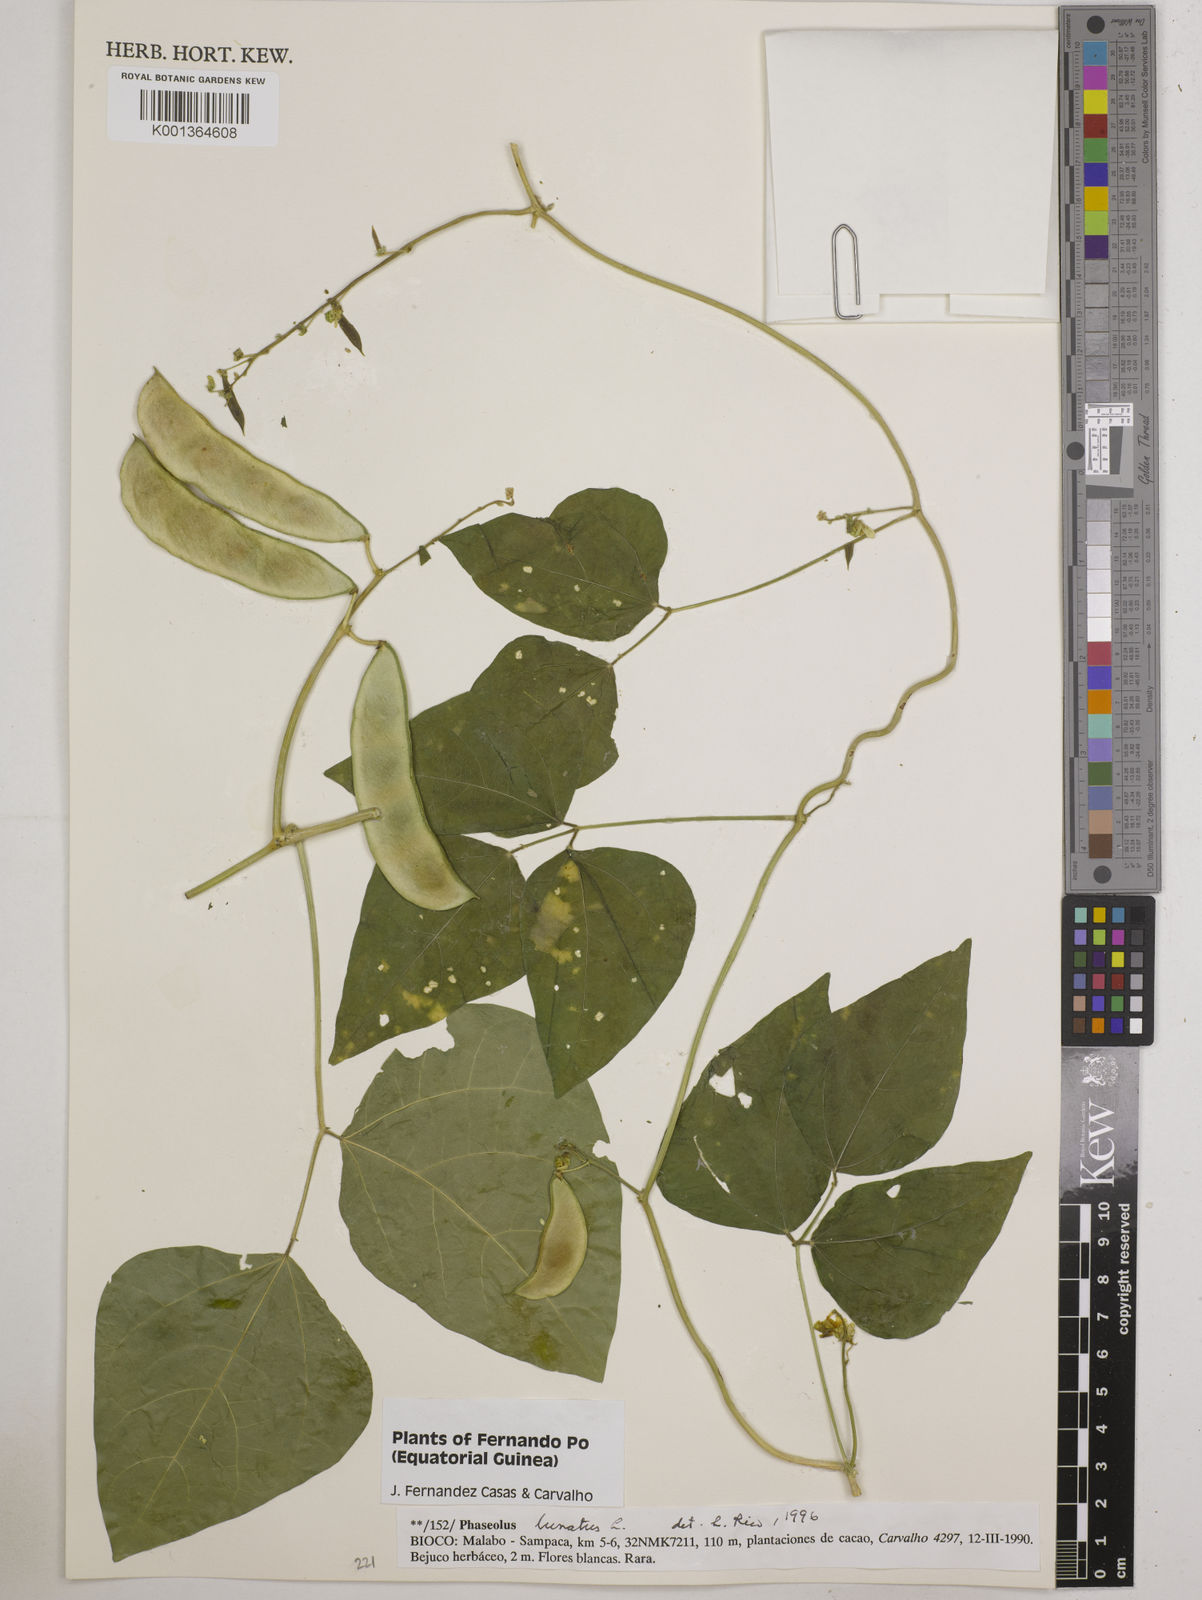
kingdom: Plantae
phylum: Tracheophyta
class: Magnoliopsida
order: Fabales
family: Fabaceae
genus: Phaseolus
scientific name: Phaseolus lunatus
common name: Sieva bean
